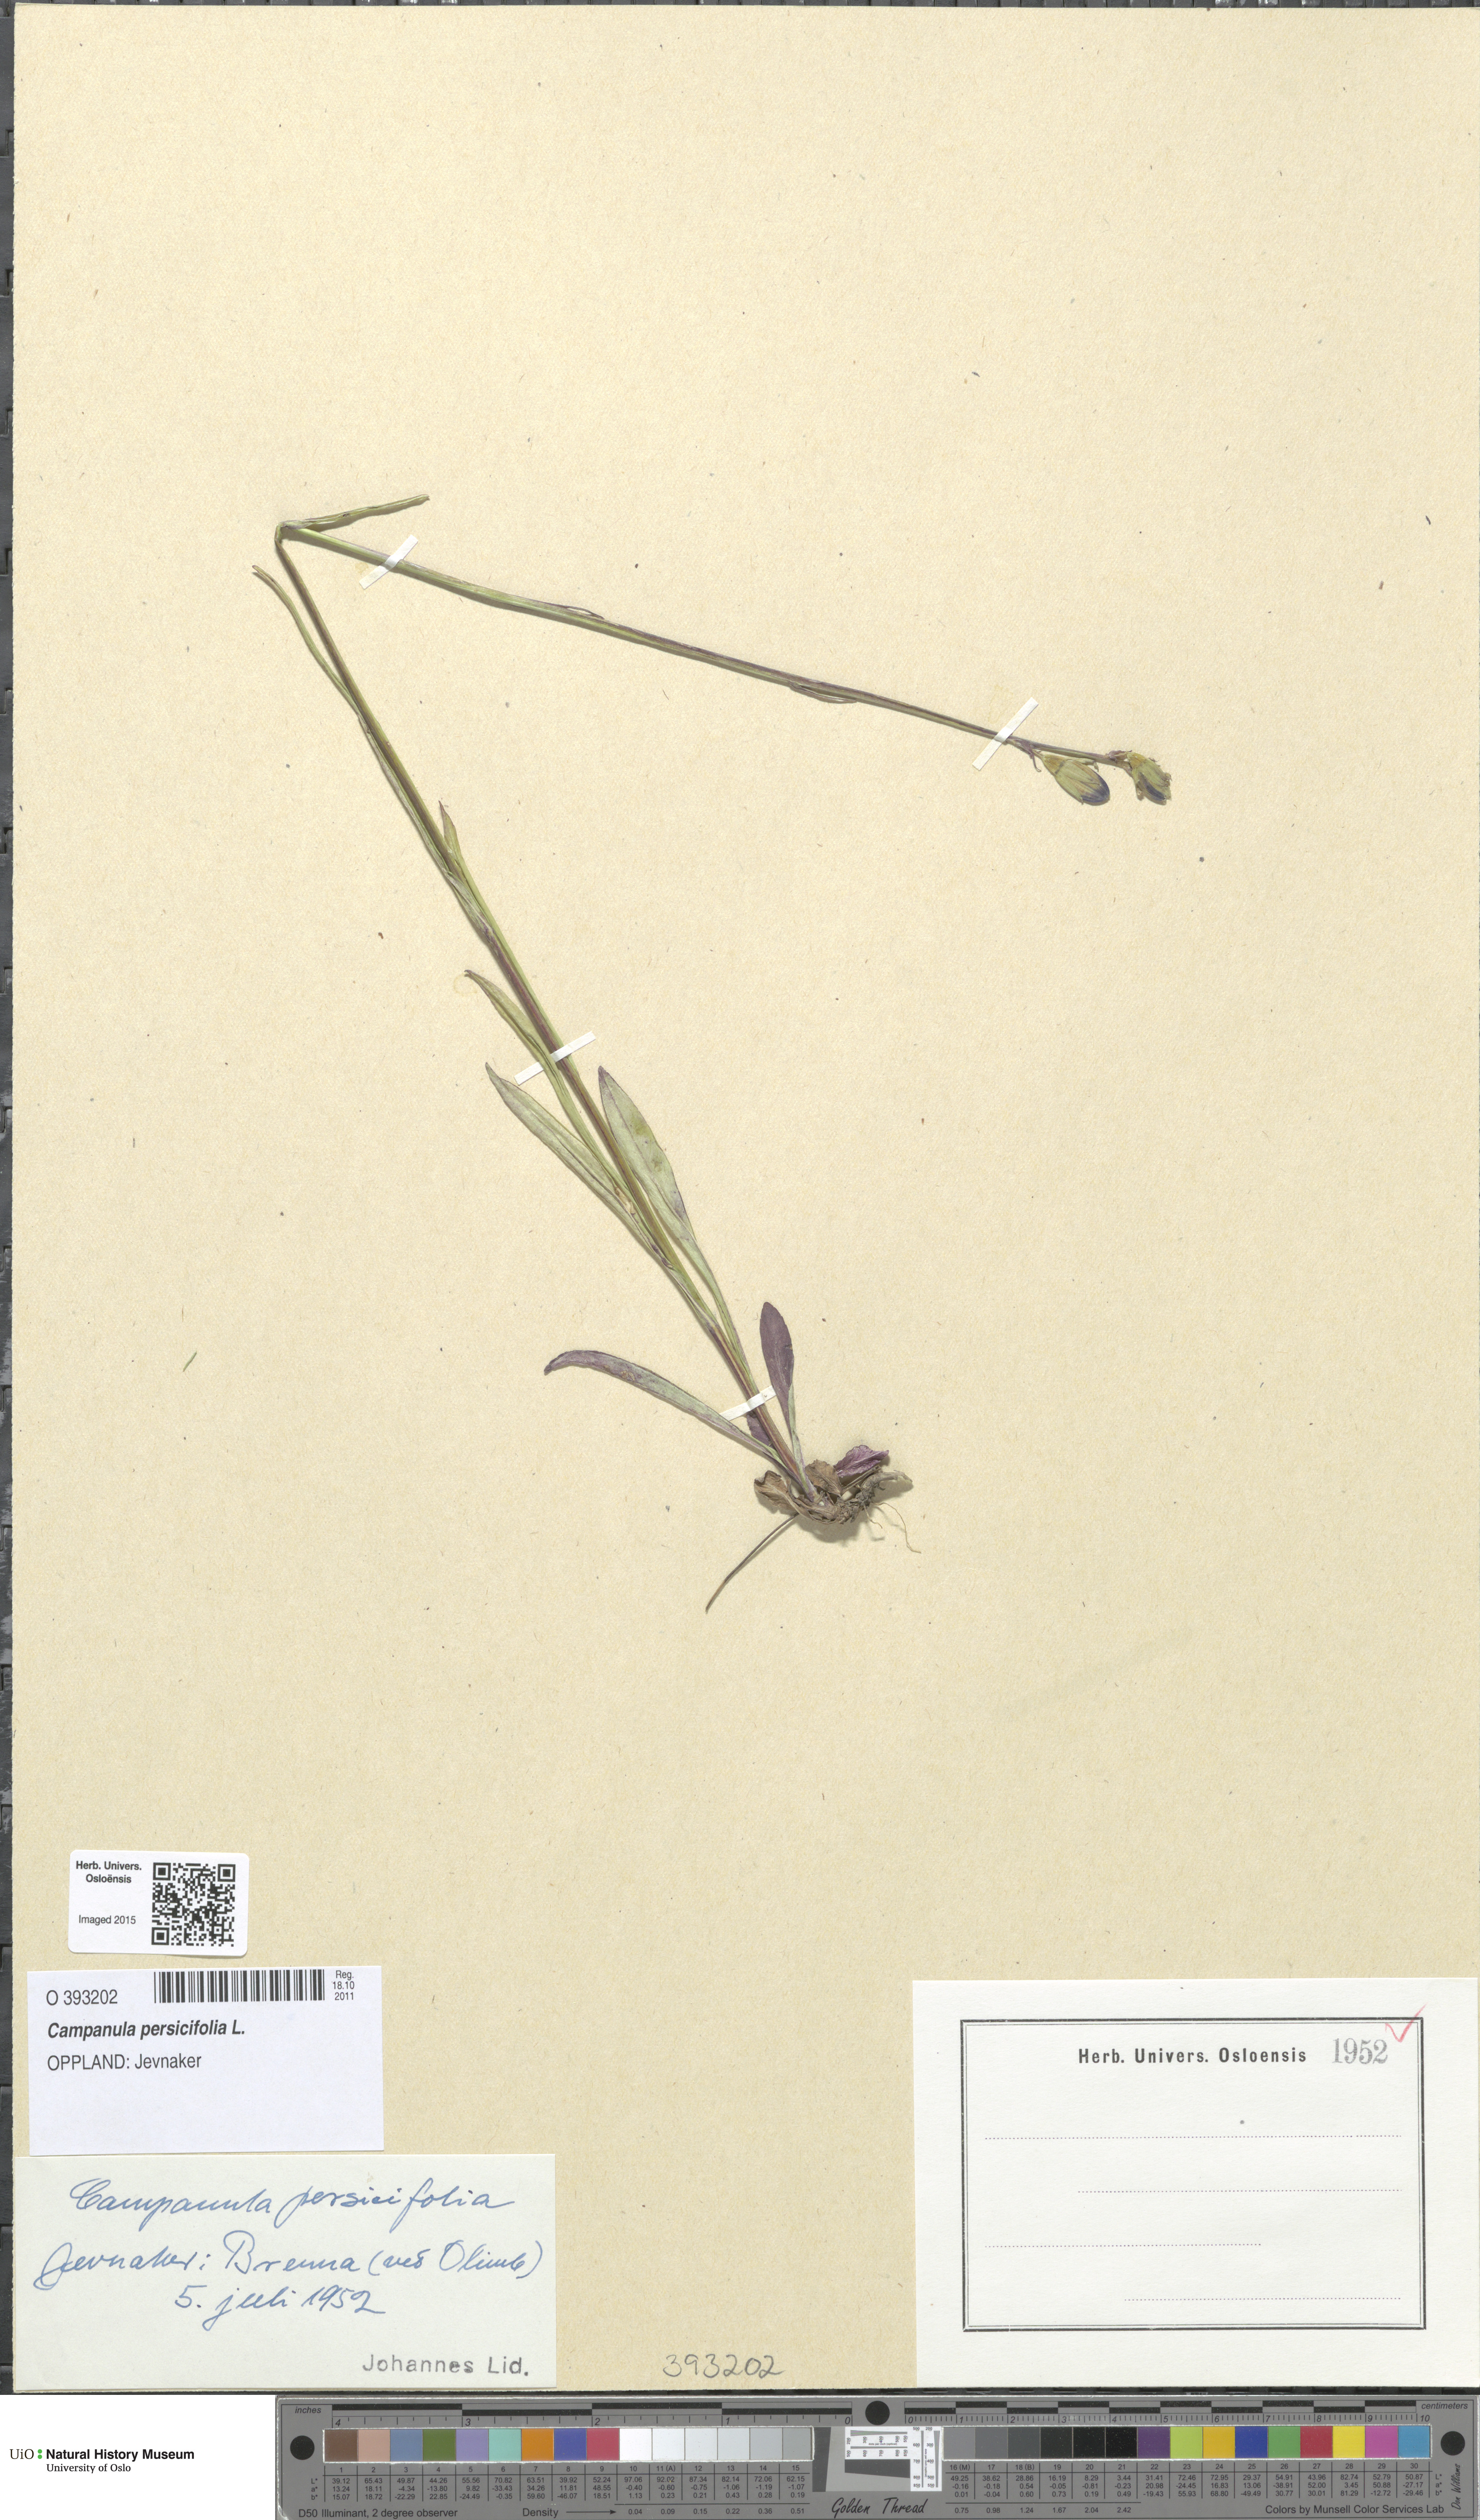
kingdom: Plantae
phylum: Tracheophyta
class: Magnoliopsida
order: Asterales
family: Campanulaceae
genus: Campanula
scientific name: Campanula persicifolia
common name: Peach-leaved bellflower
